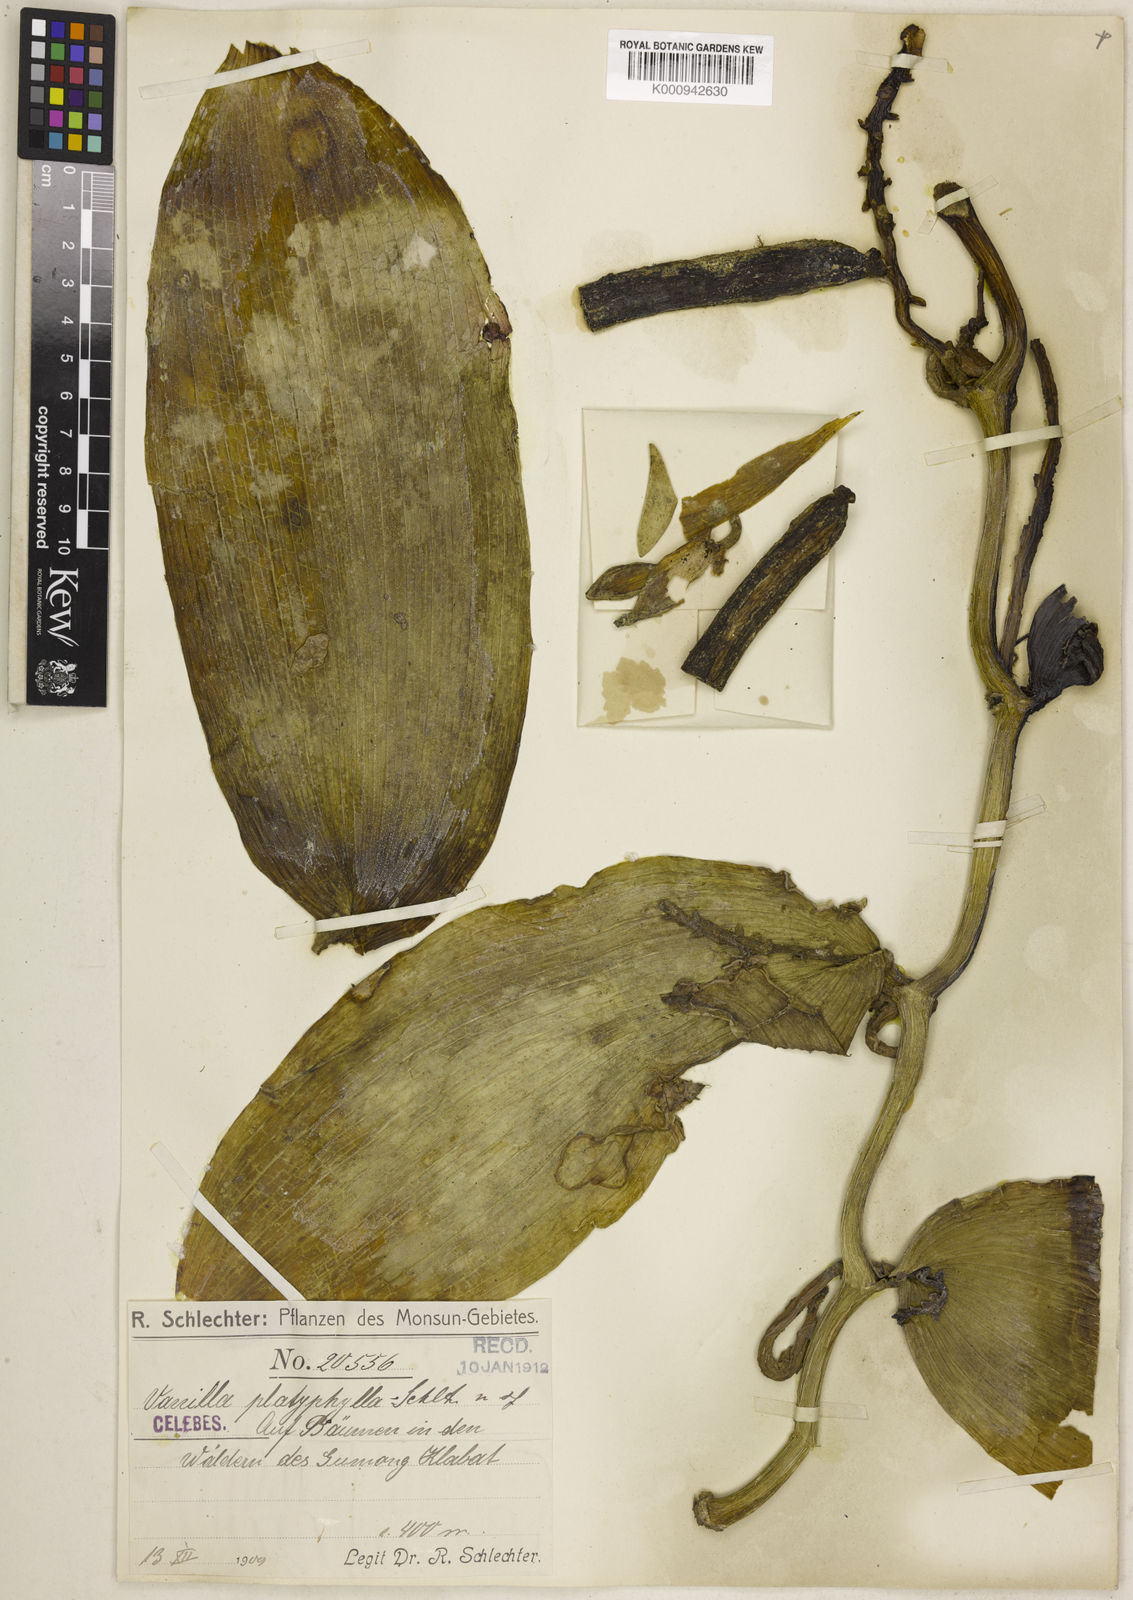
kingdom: Plantae
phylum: Tracheophyta
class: Liliopsida
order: Asparagales
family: Orchidaceae
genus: Vanilla
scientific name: Vanilla platyphylla
